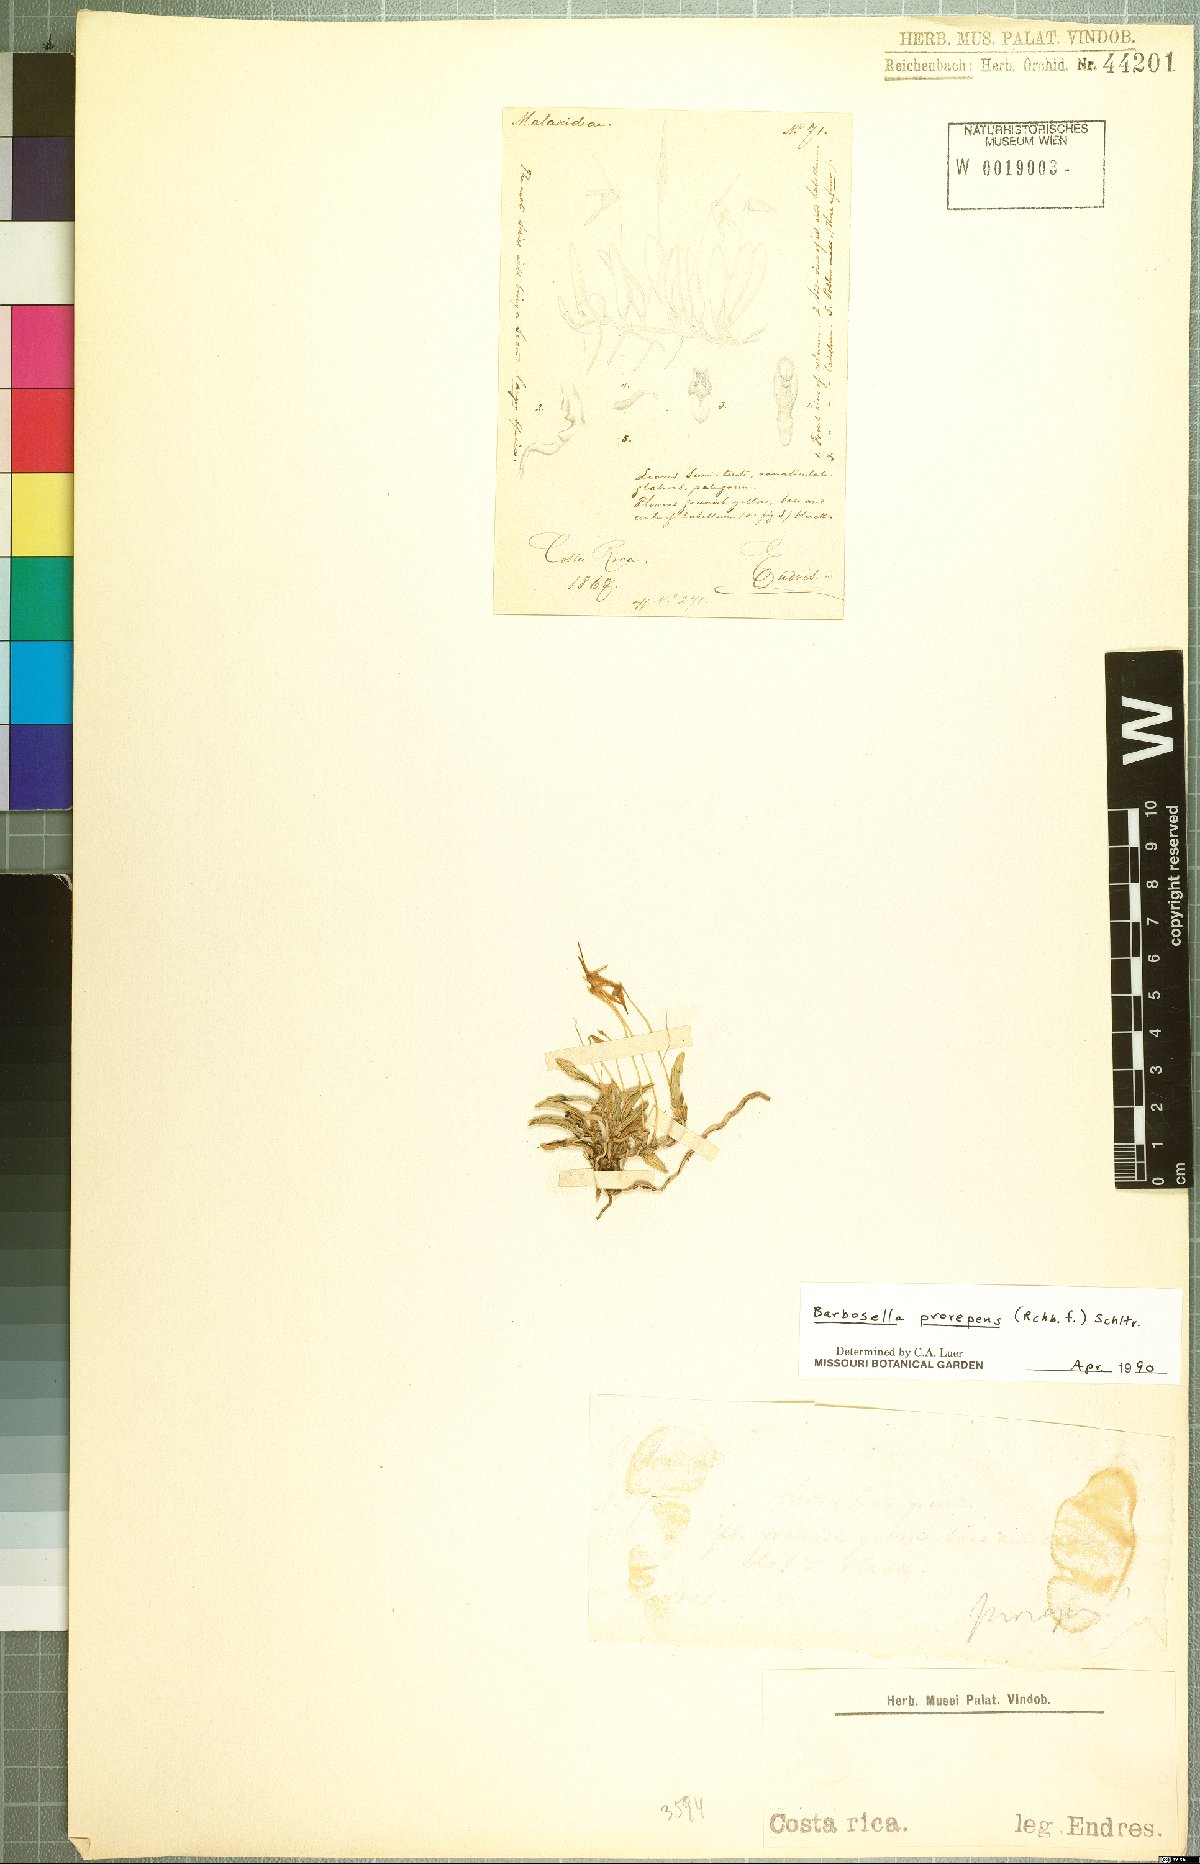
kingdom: Plantae
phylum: Tracheophyta
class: Liliopsida
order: Asparagales
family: Orchidaceae
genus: Barbosella
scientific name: Barbosella prorepens
